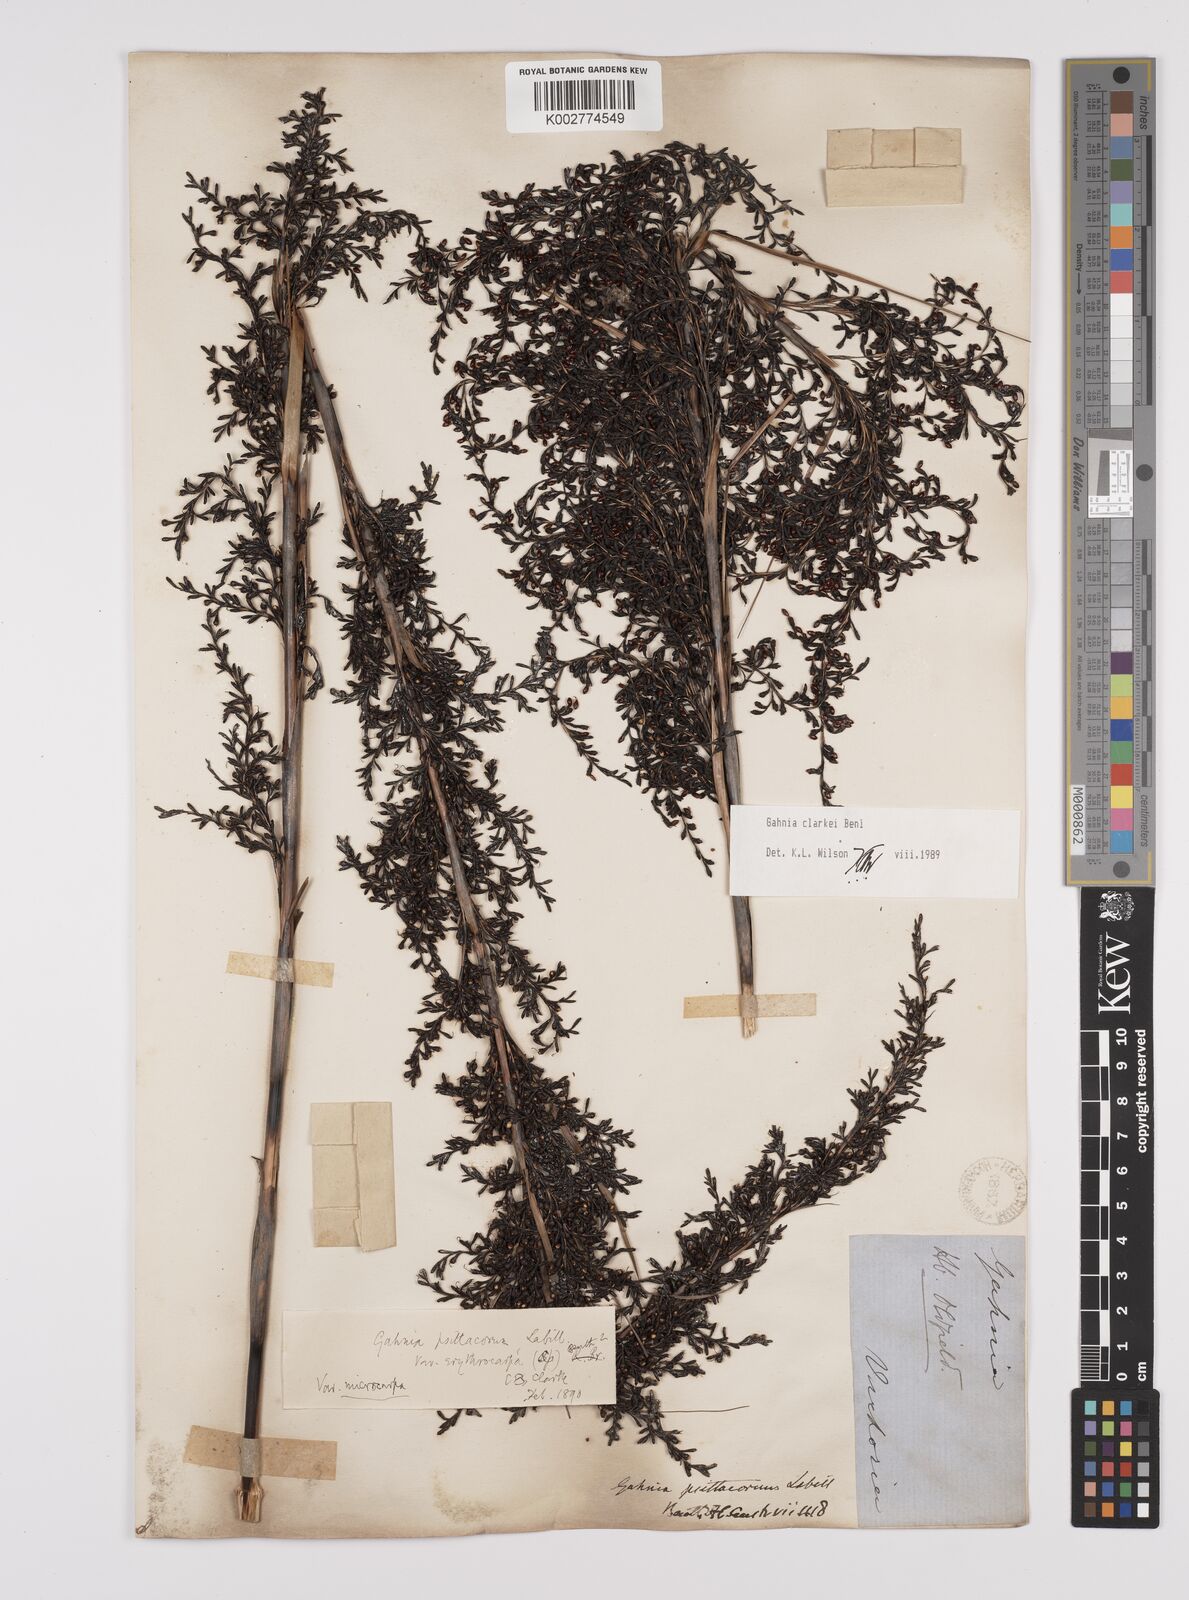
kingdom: Plantae
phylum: Tracheophyta
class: Liliopsida
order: Poales
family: Cyperaceae
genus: Gahnia
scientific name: Gahnia clarkei
